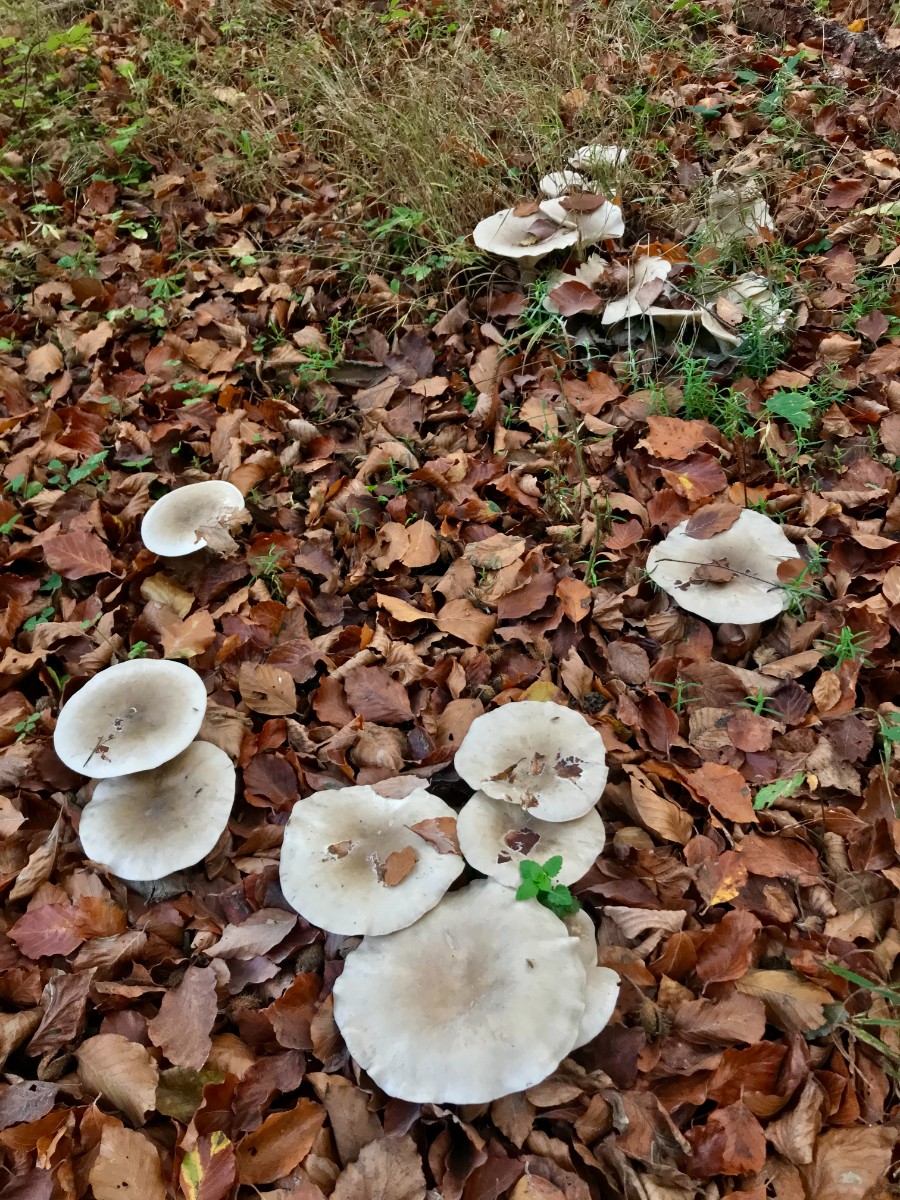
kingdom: Fungi
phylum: Basidiomycota
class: Agaricomycetes
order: Agaricales
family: Tricholomataceae
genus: Clitocybe
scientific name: Clitocybe nebularis
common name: tåge-tragthat
